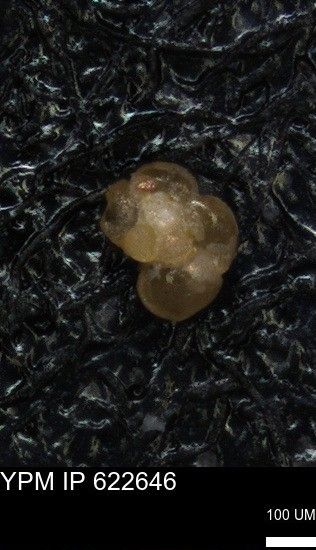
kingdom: Chromista
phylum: Foraminifera
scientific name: Foraminifera
